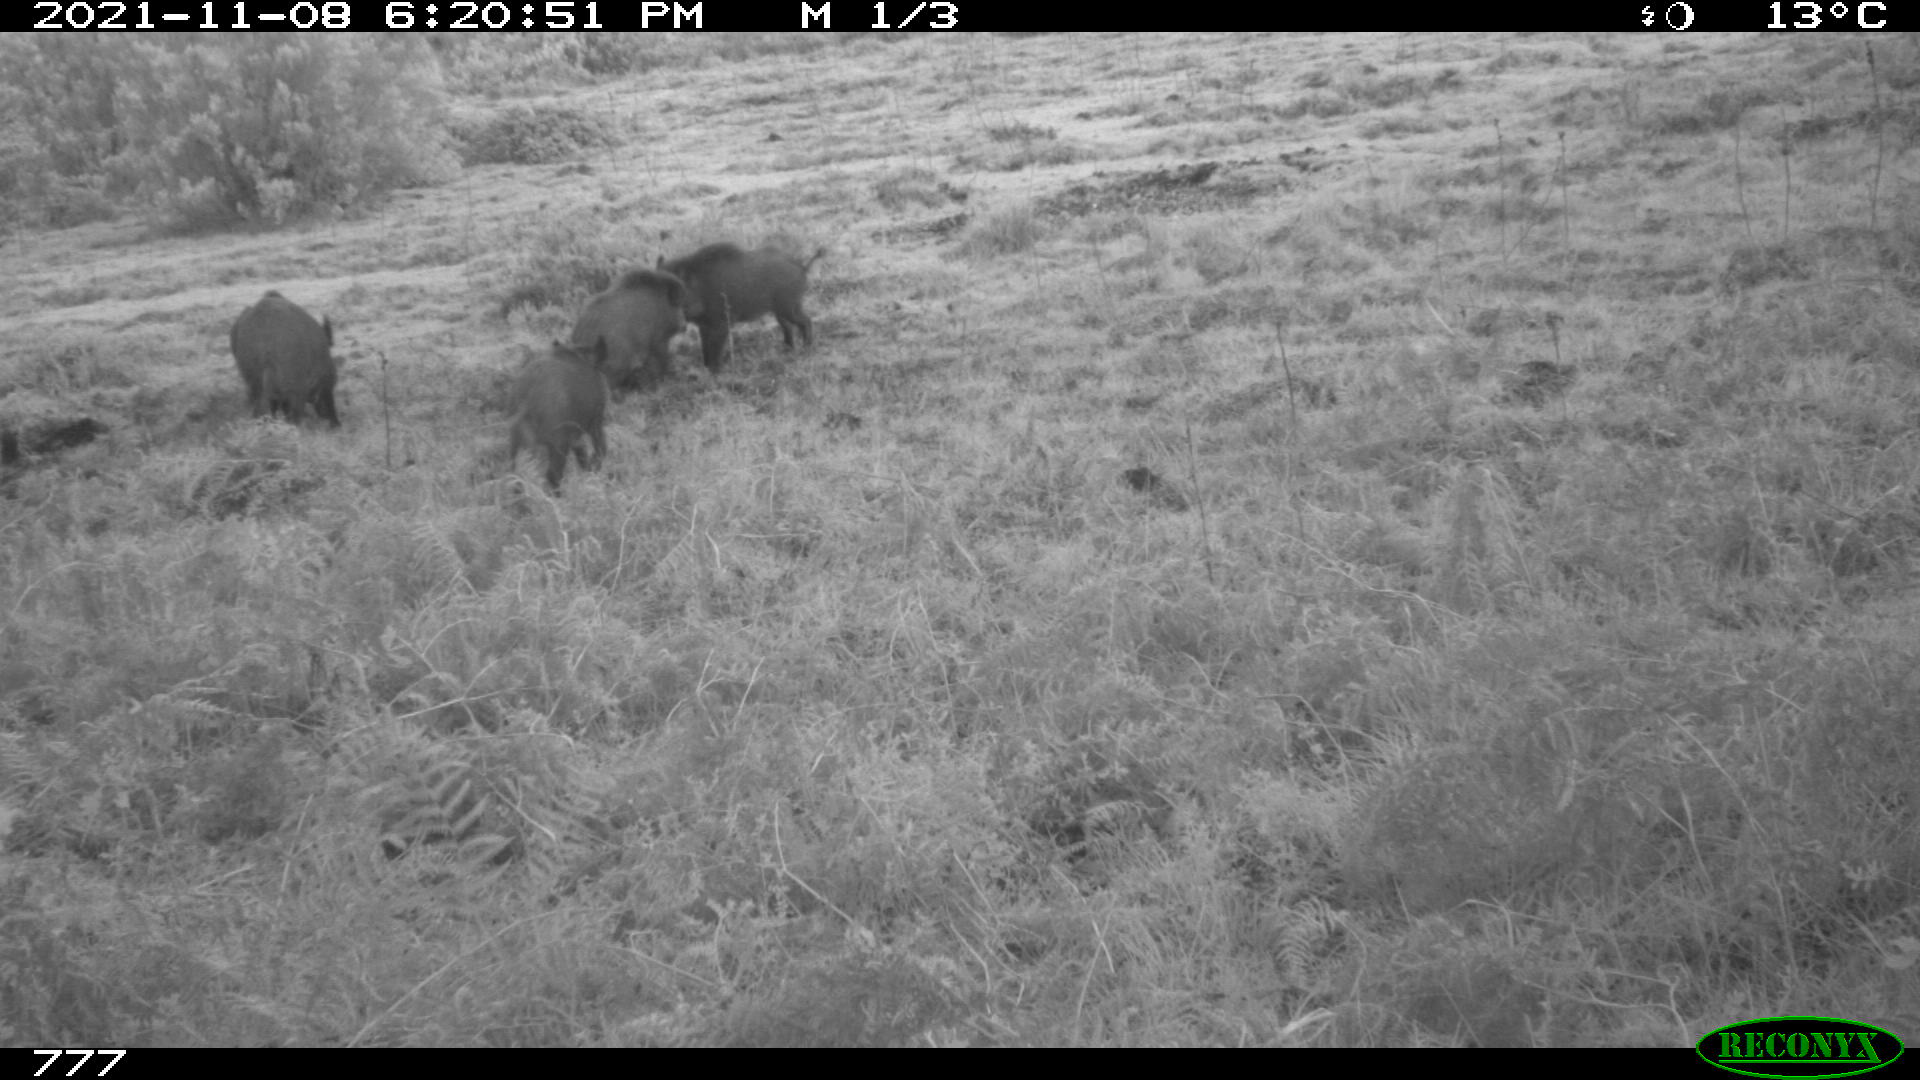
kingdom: Animalia
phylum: Chordata
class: Mammalia
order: Artiodactyla
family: Suidae
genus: Sus
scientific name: Sus scrofa
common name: Wild boar
